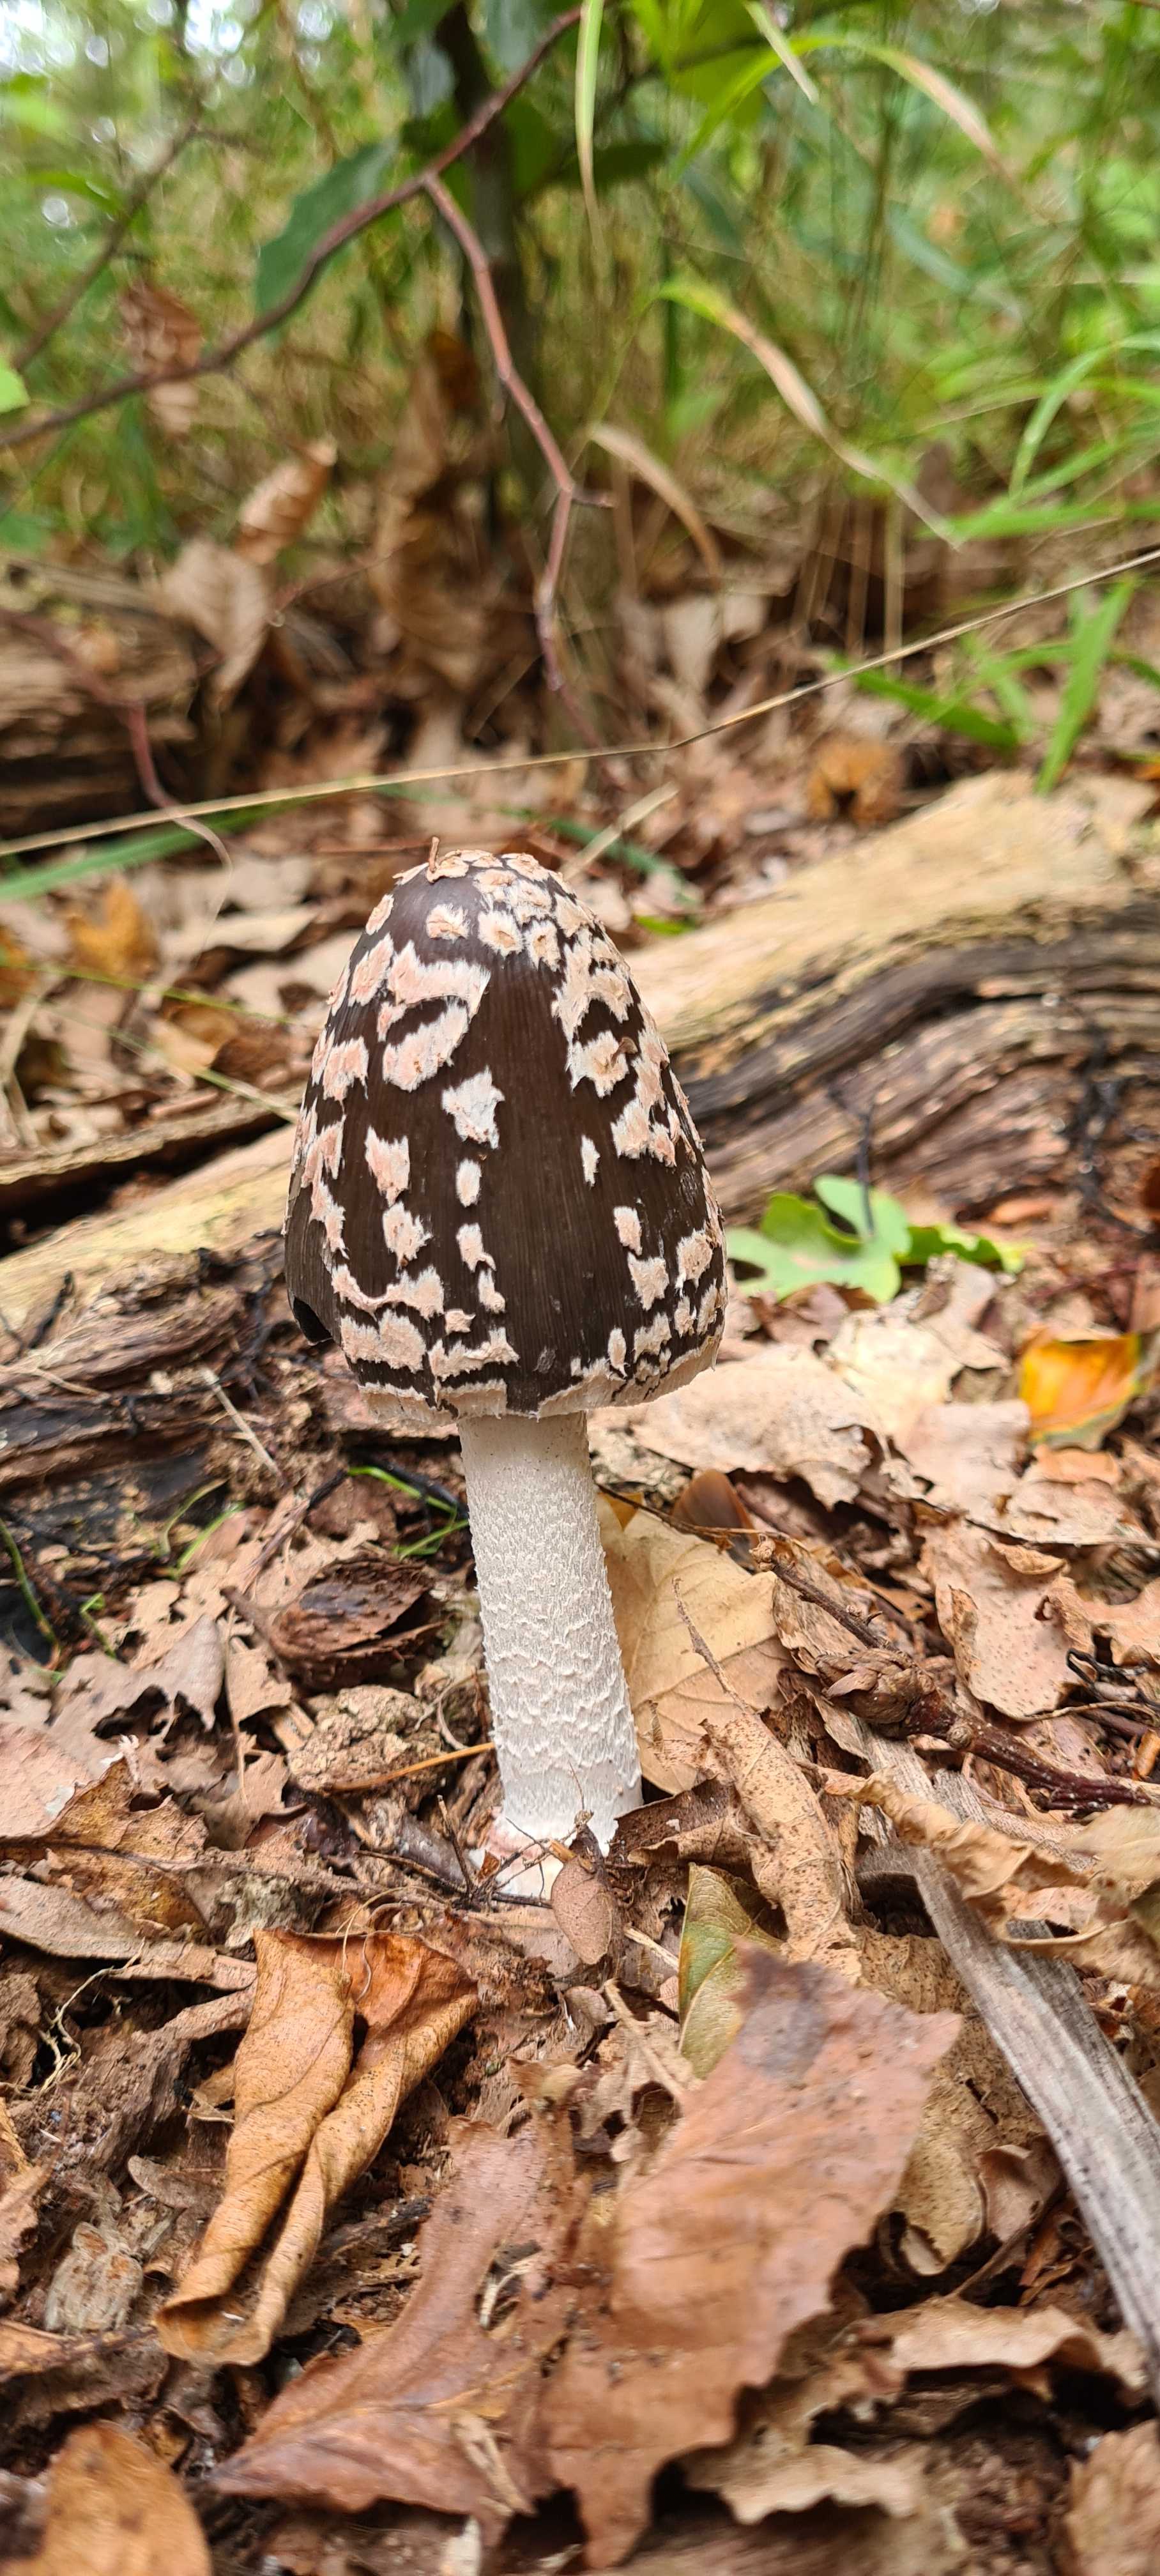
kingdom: Fungi
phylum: Basidiomycota
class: Agaricomycetes
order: Agaricales
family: Psathyrellaceae
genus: Coprinopsis
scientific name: Coprinopsis picacea
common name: skade-blækhat
